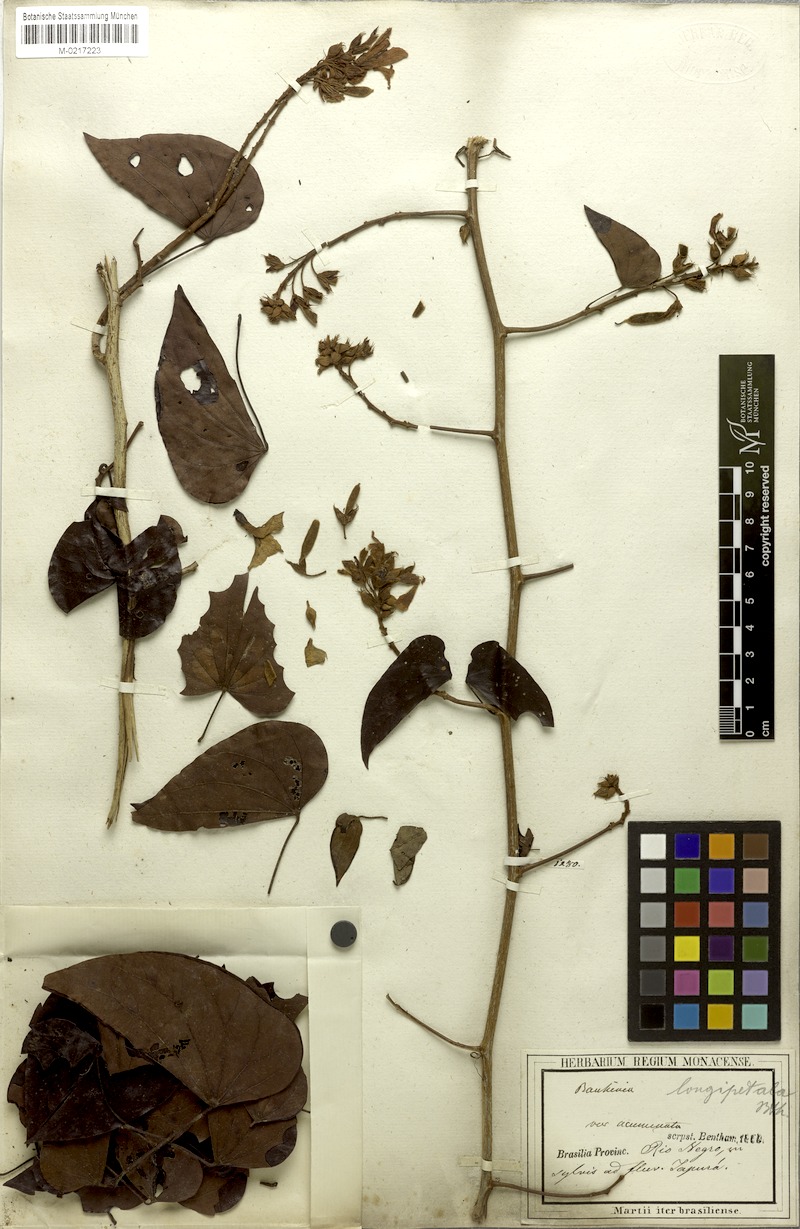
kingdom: Plantae
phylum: Tracheophyta
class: Magnoliopsida
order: Fabales
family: Fabaceae
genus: Schnella
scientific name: Schnella glabra
